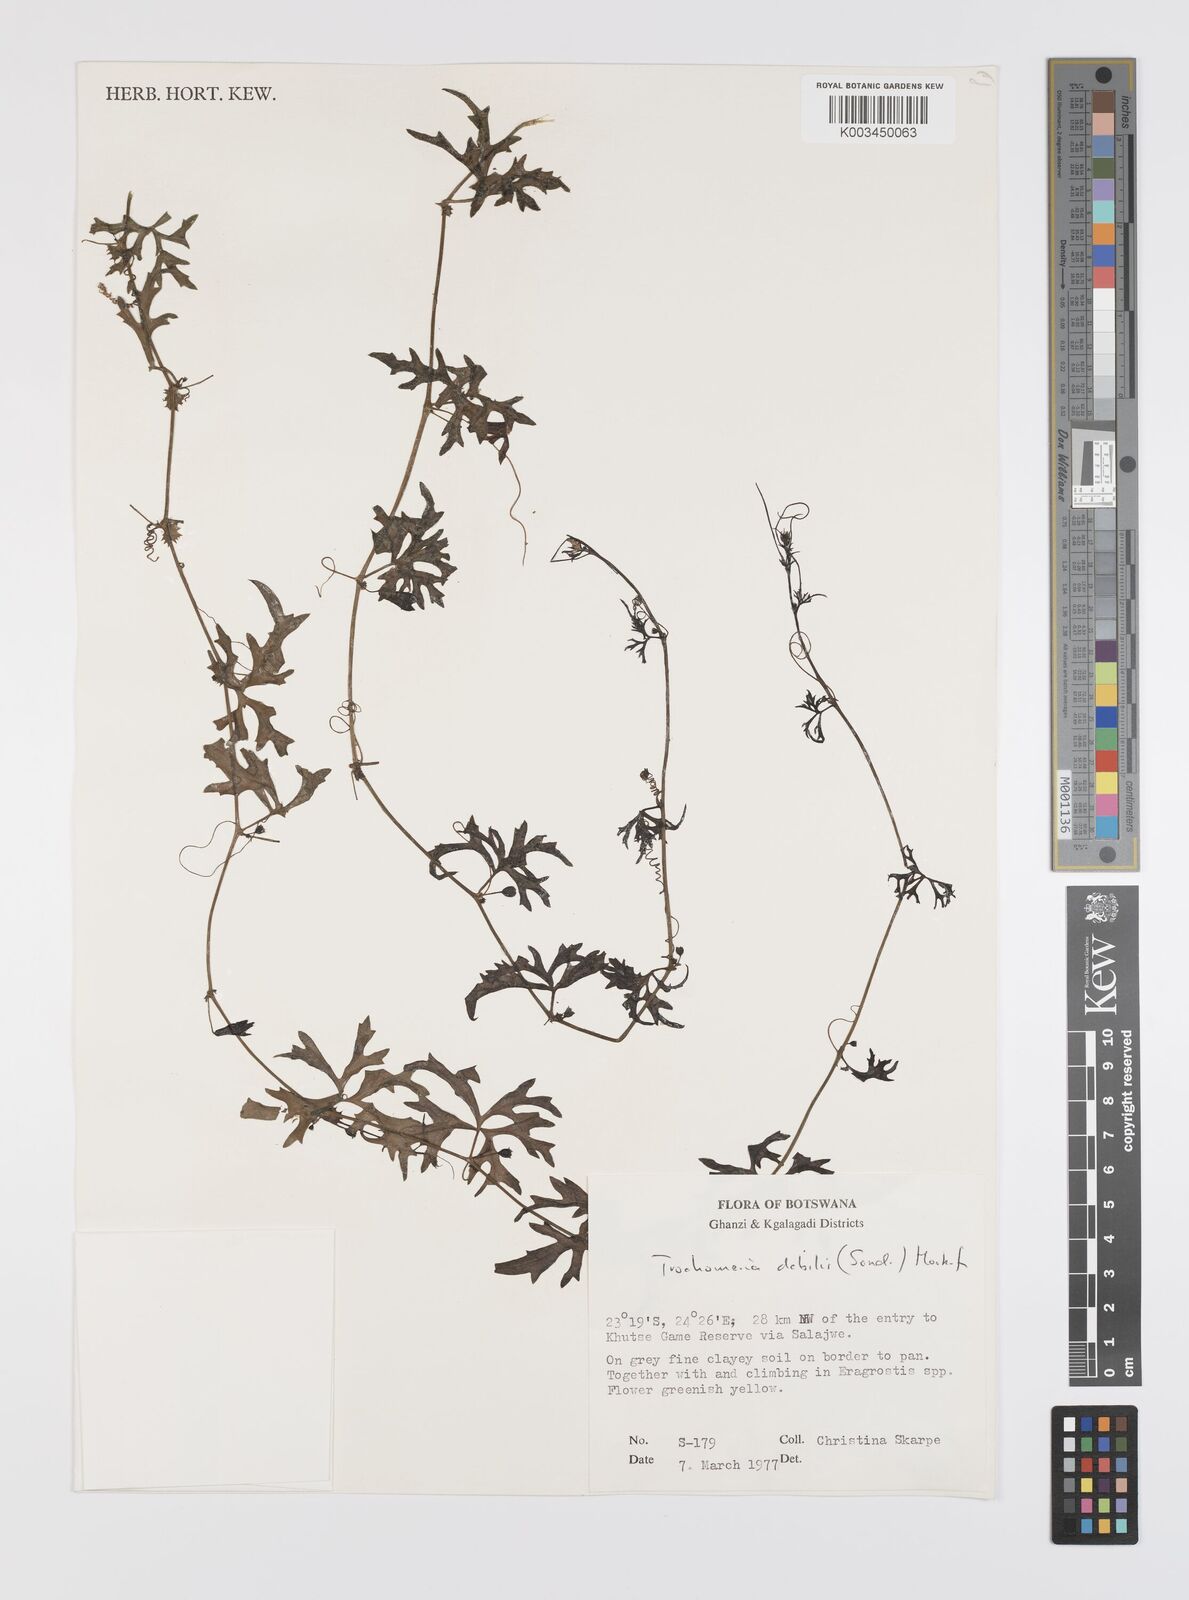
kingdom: Plantae
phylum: Tracheophyta
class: Magnoliopsida
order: Cucurbitales
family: Cucurbitaceae
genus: Trochomeria
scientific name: Trochomeria debilis
